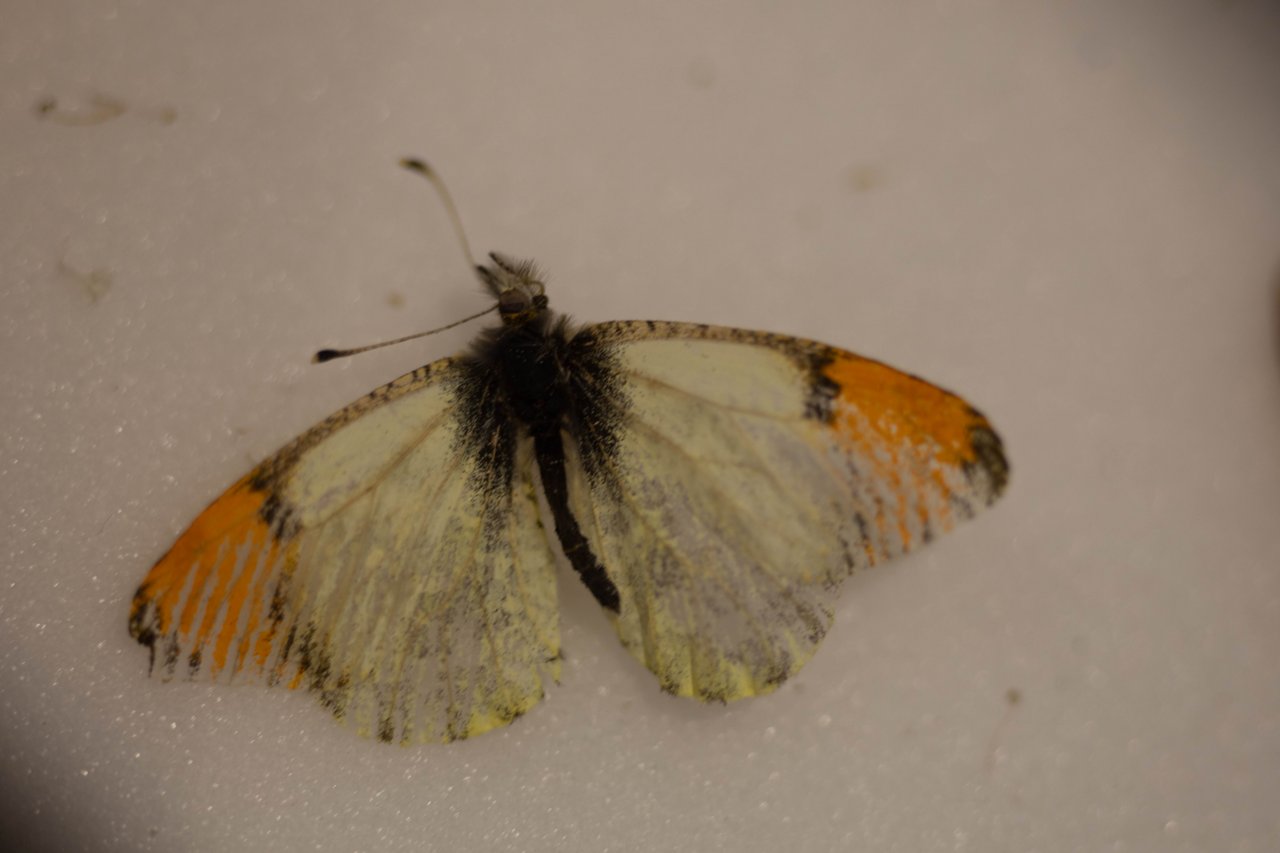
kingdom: Animalia
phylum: Arthropoda
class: Insecta
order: Lepidoptera
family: Pieridae
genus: Anthocharis
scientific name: Anthocharis sara
